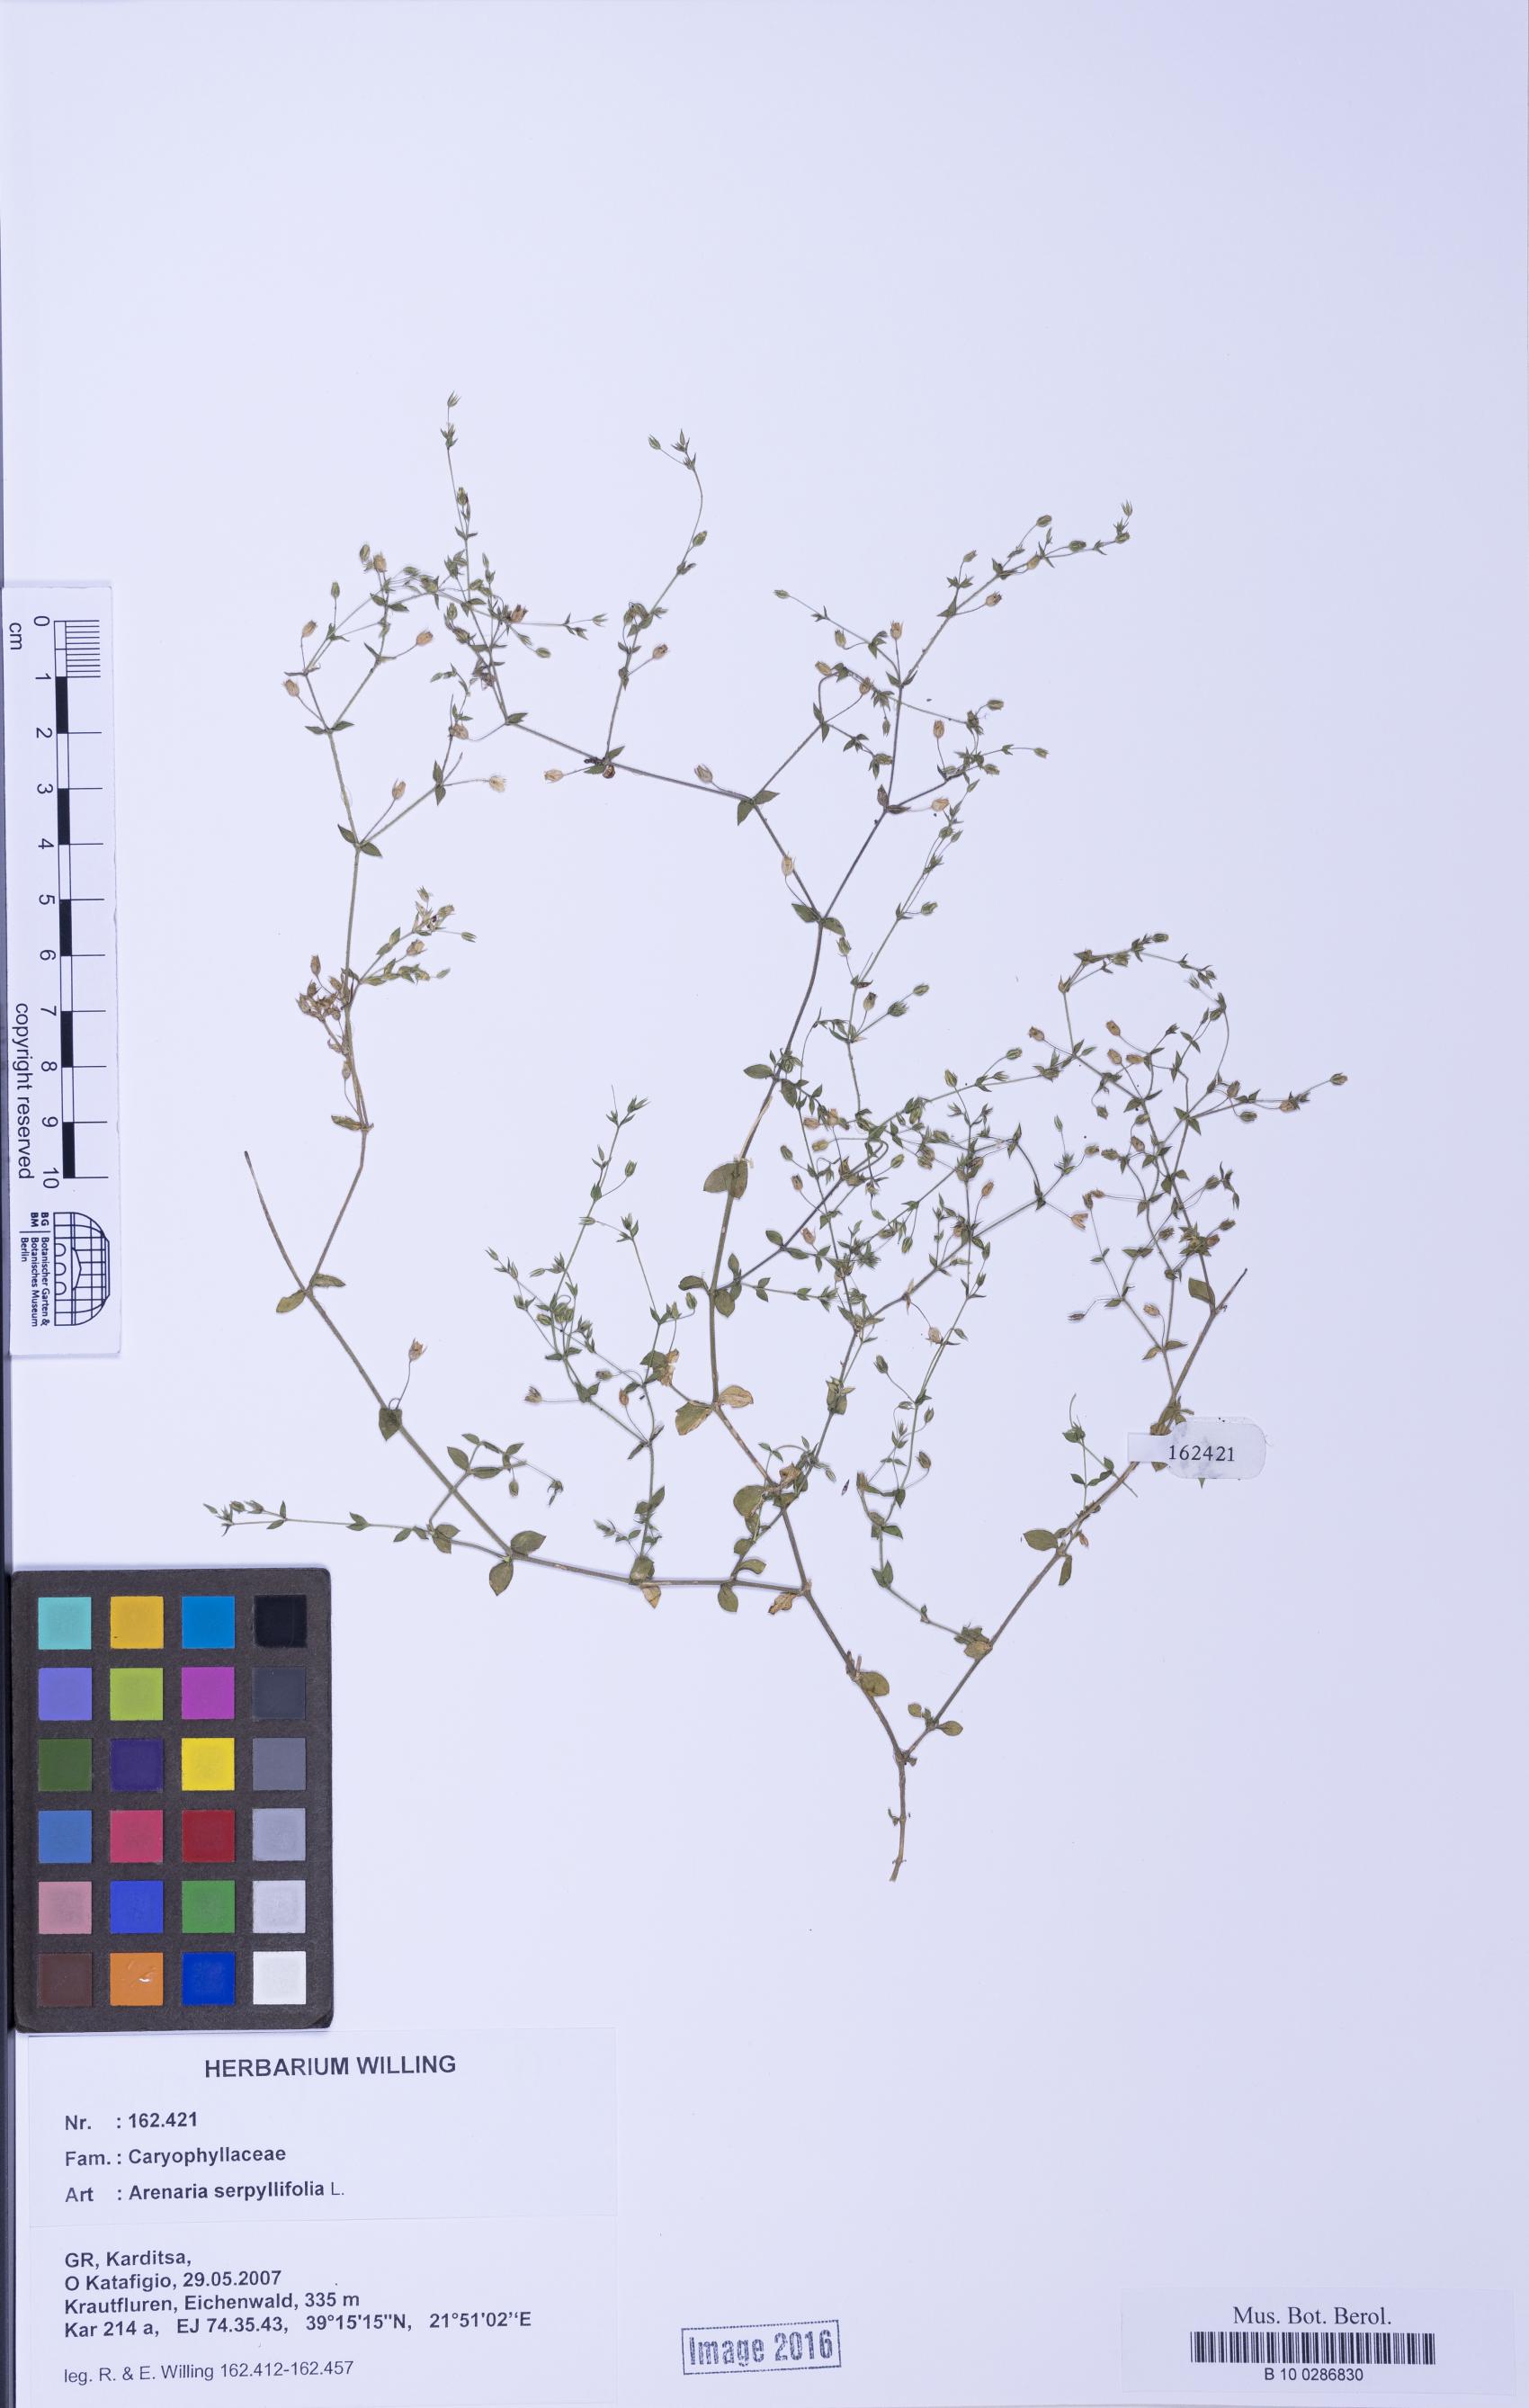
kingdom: Plantae
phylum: Tracheophyta
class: Magnoliopsida
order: Caryophyllales
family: Caryophyllaceae
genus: Arenaria
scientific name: Arenaria serpyllifolia
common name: Thyme-leaved sandwort
